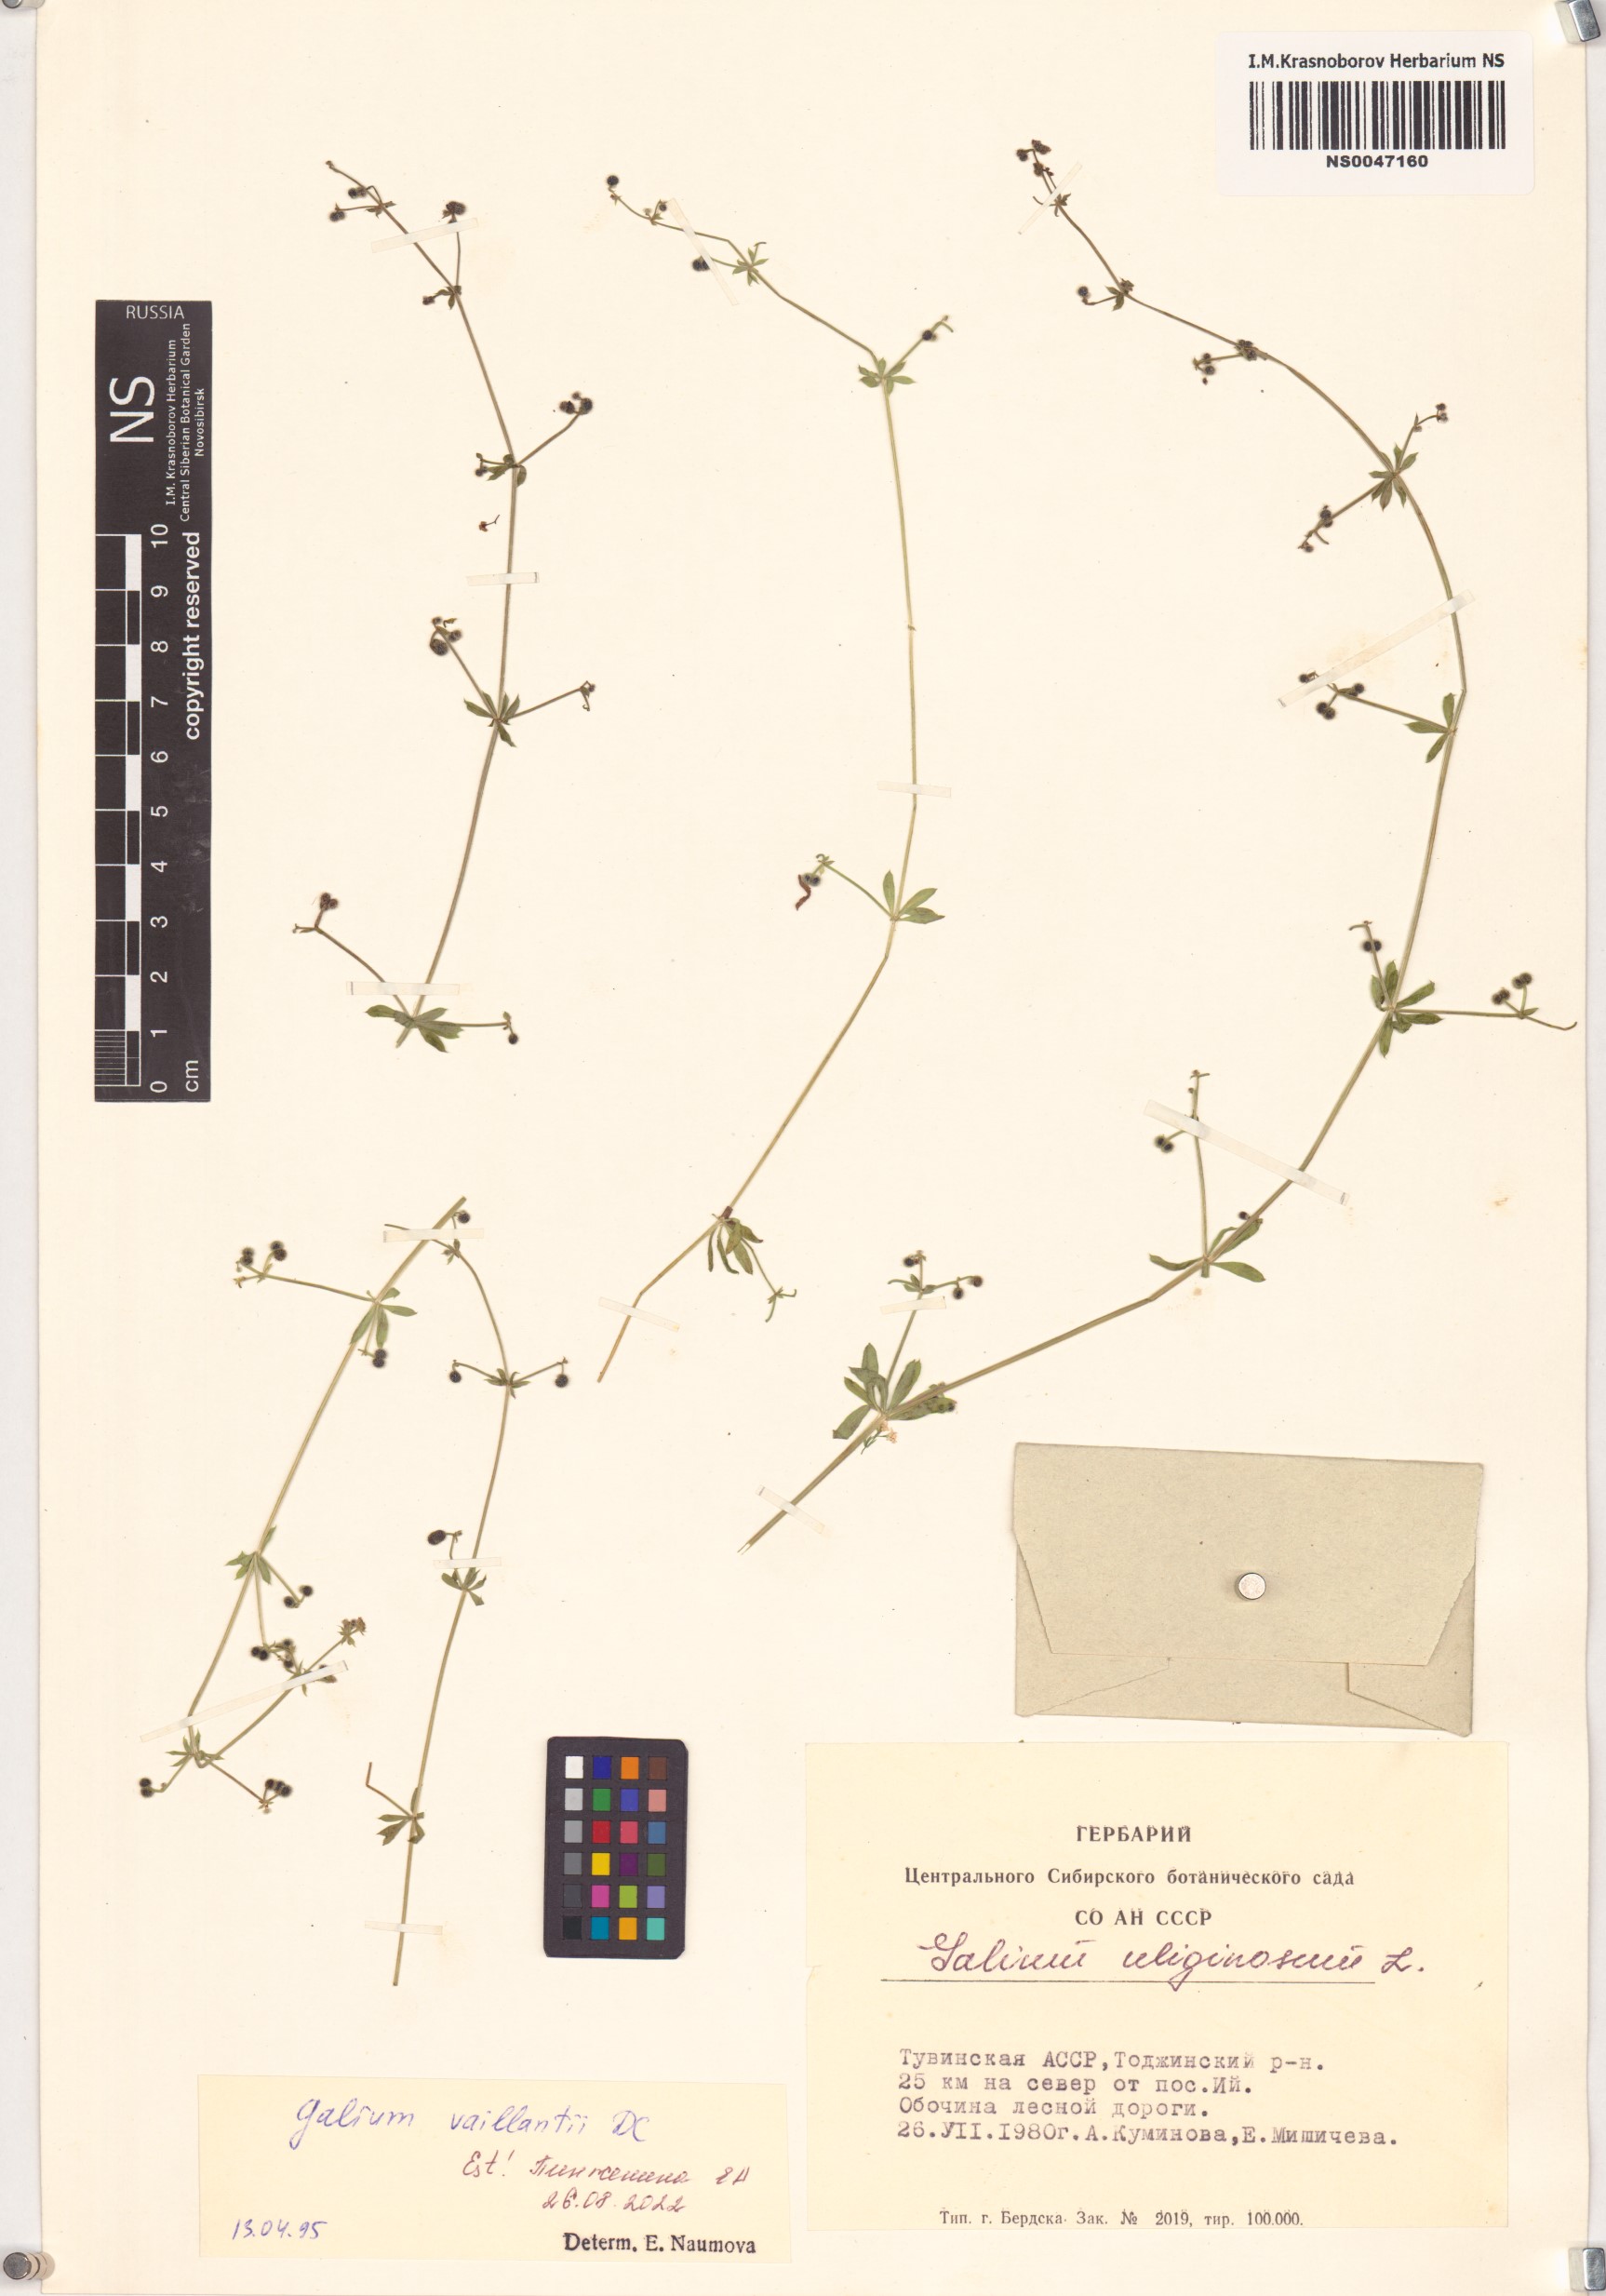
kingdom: Plantae
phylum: Tracheophyta
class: Magnoliopsida
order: Gentianales
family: Rubiaceae
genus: Galium
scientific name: Galium spurium
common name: False cleavers
